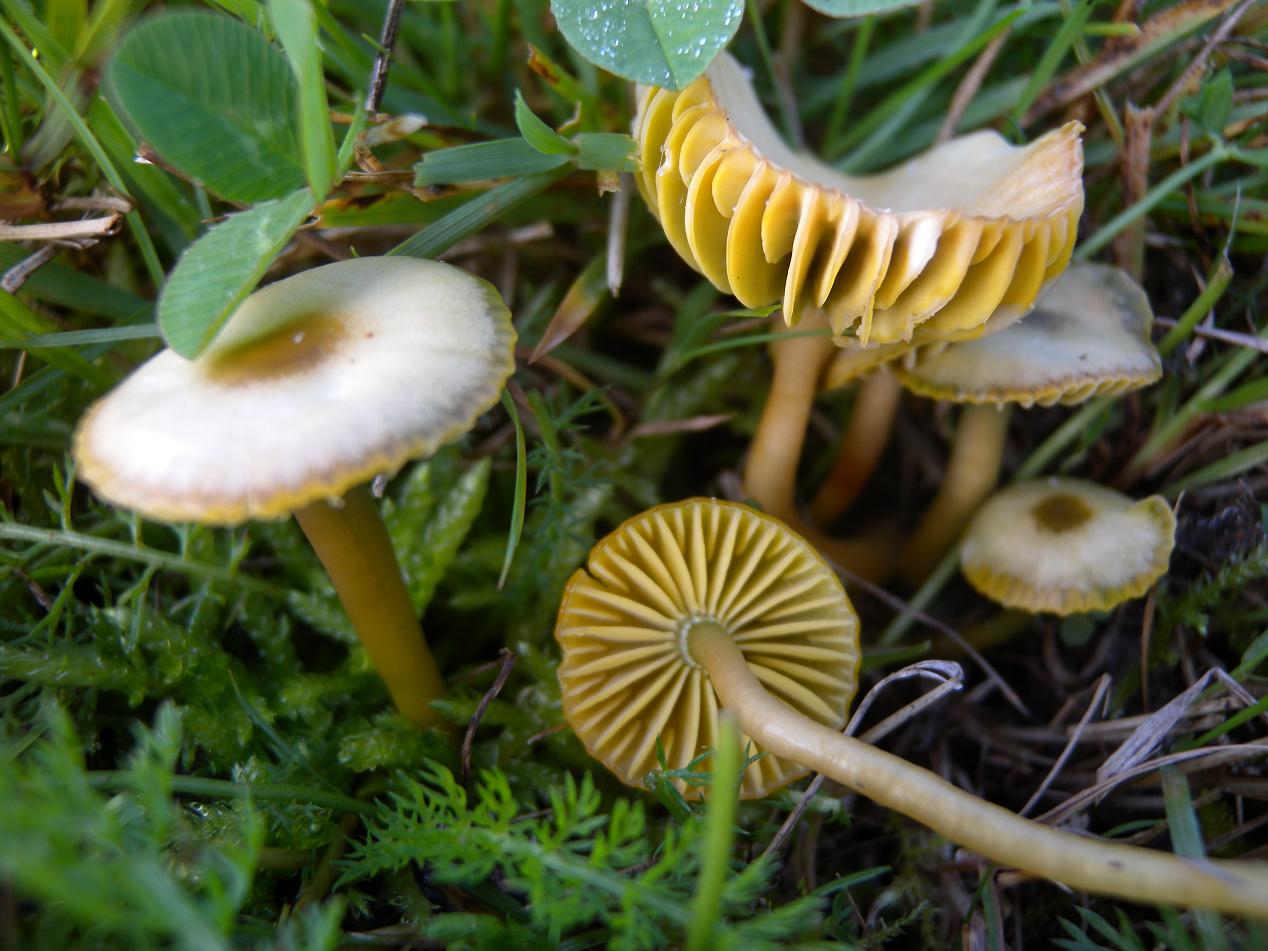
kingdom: Fungi
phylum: Basidiomycota
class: Agaricomycetes
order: Agaricales
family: Hygrophoraceae
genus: Gliophorus
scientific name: Gliophorus psittacinus
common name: papegøje-vokshat
